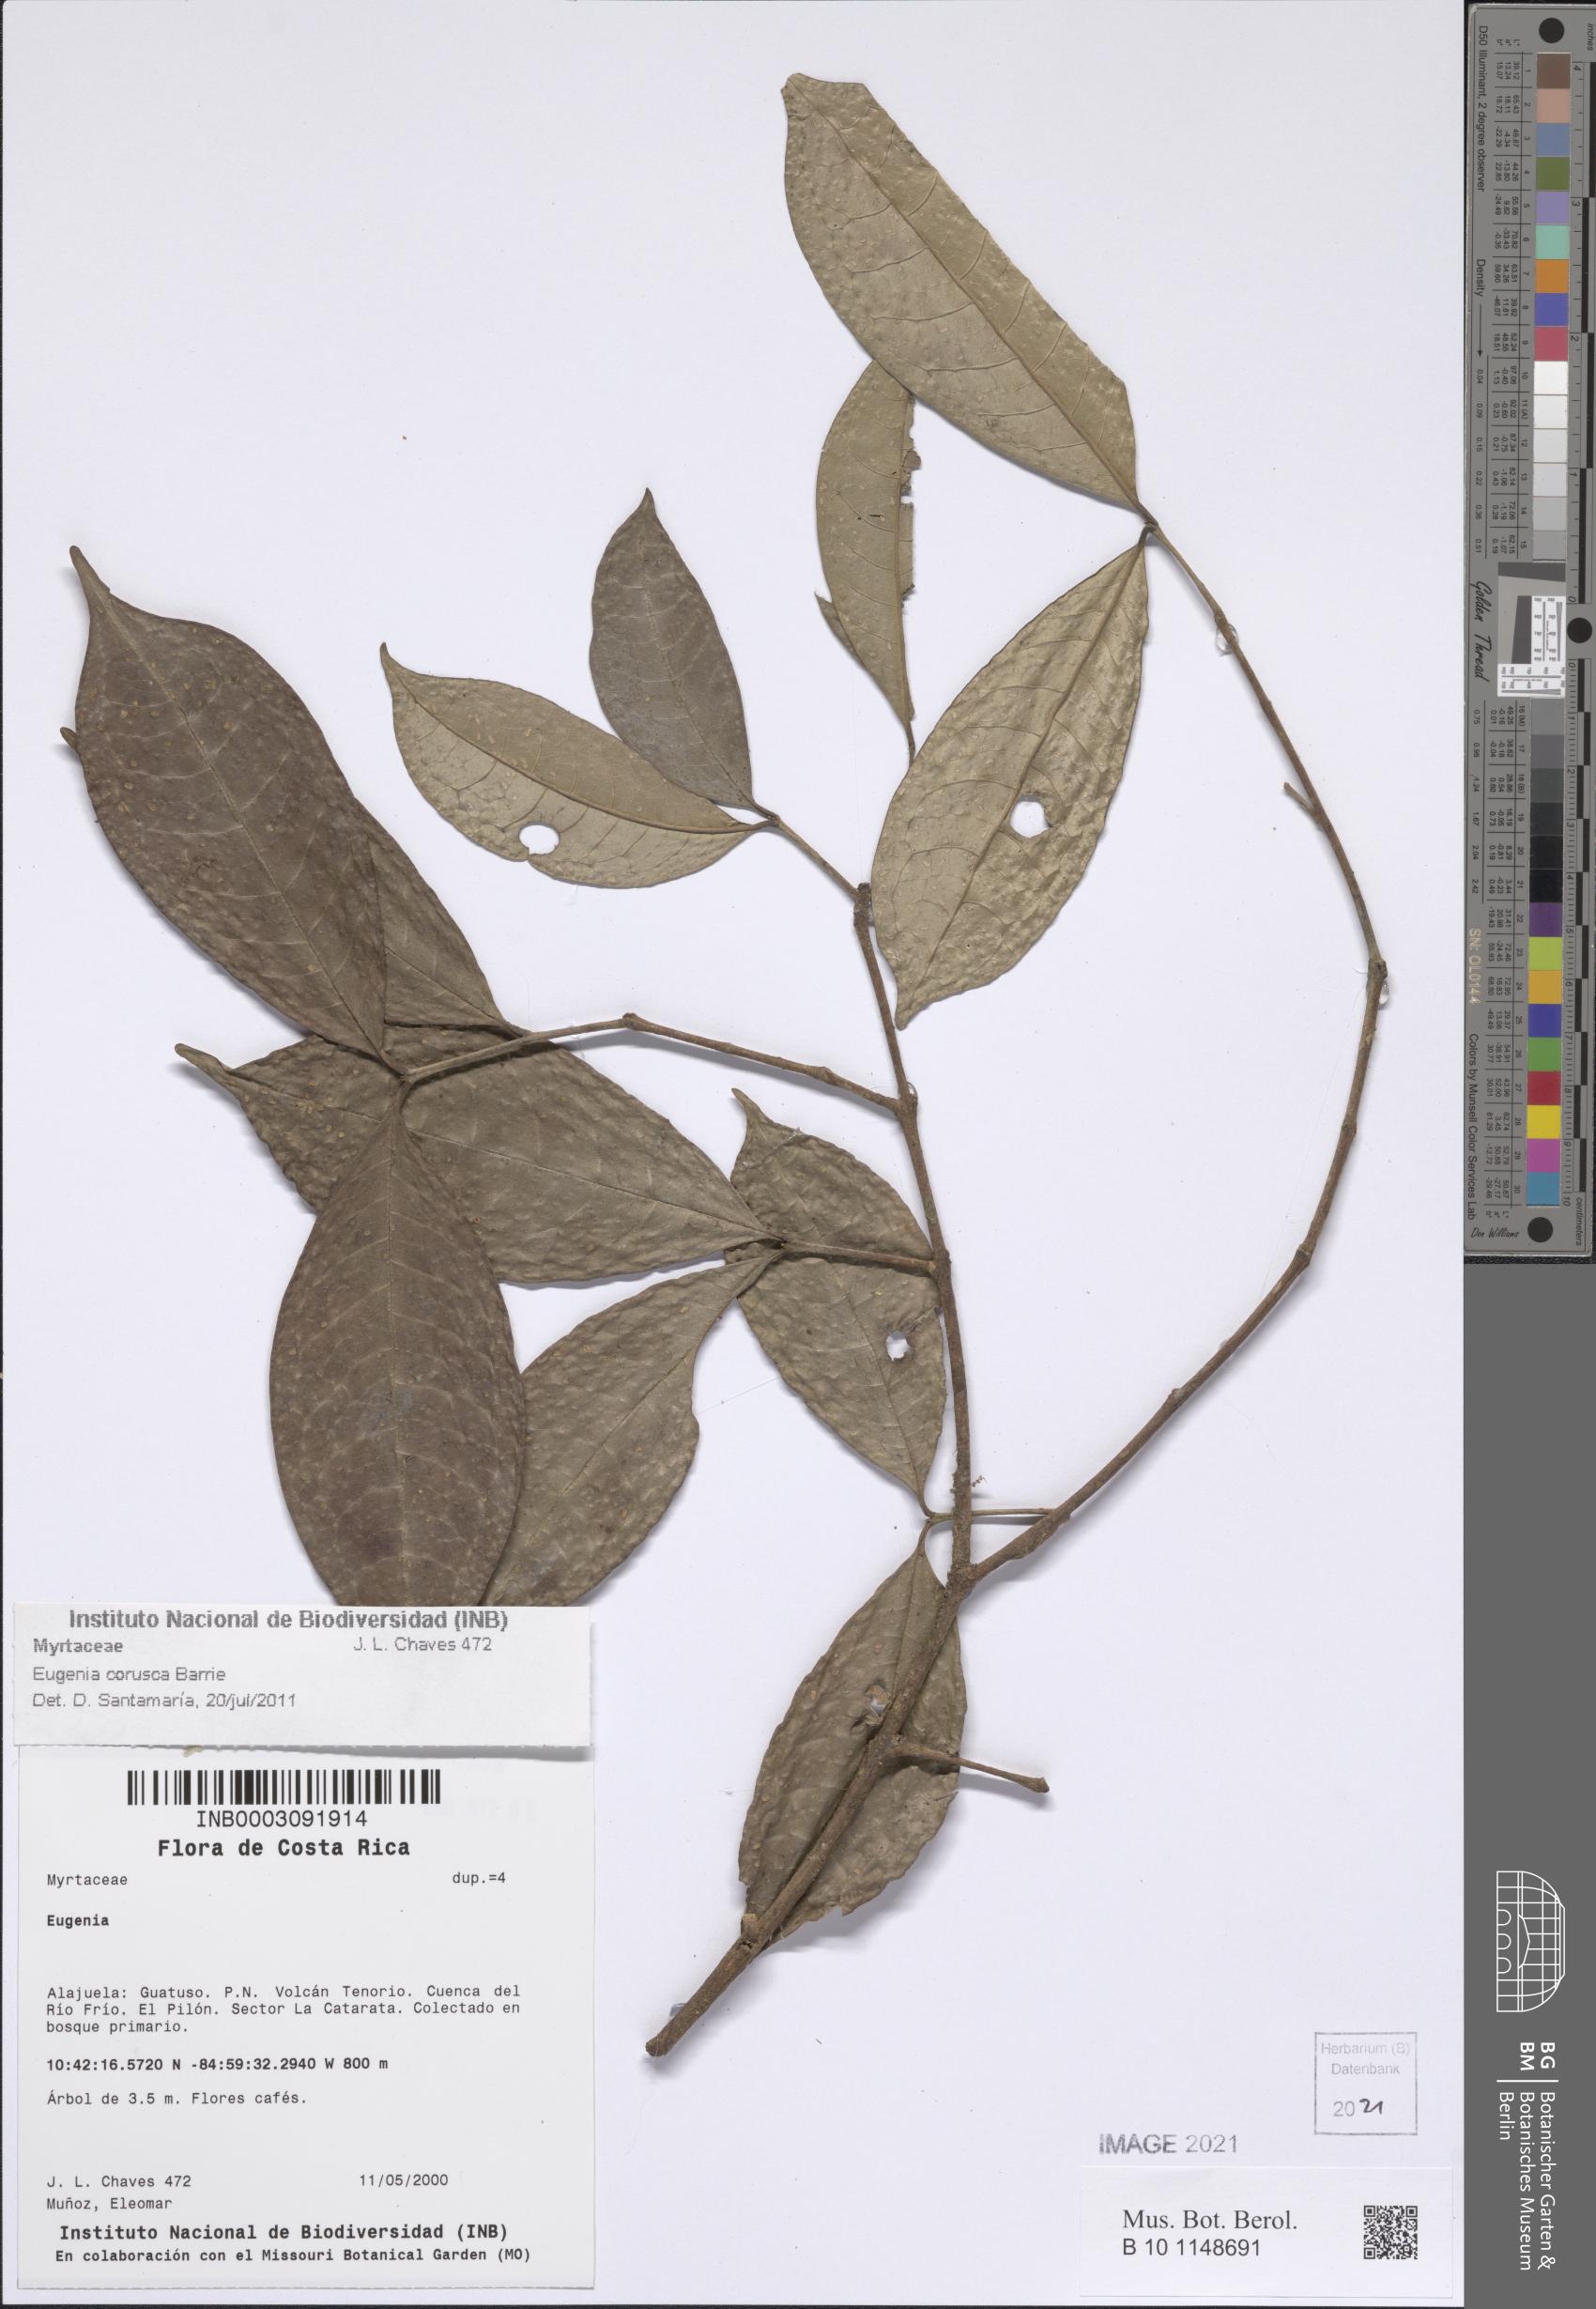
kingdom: Plantae
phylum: Tracheophyta
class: Magnoliopsida
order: Myrtales
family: Myrtaceae
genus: Eugenia
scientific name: Eugenia
